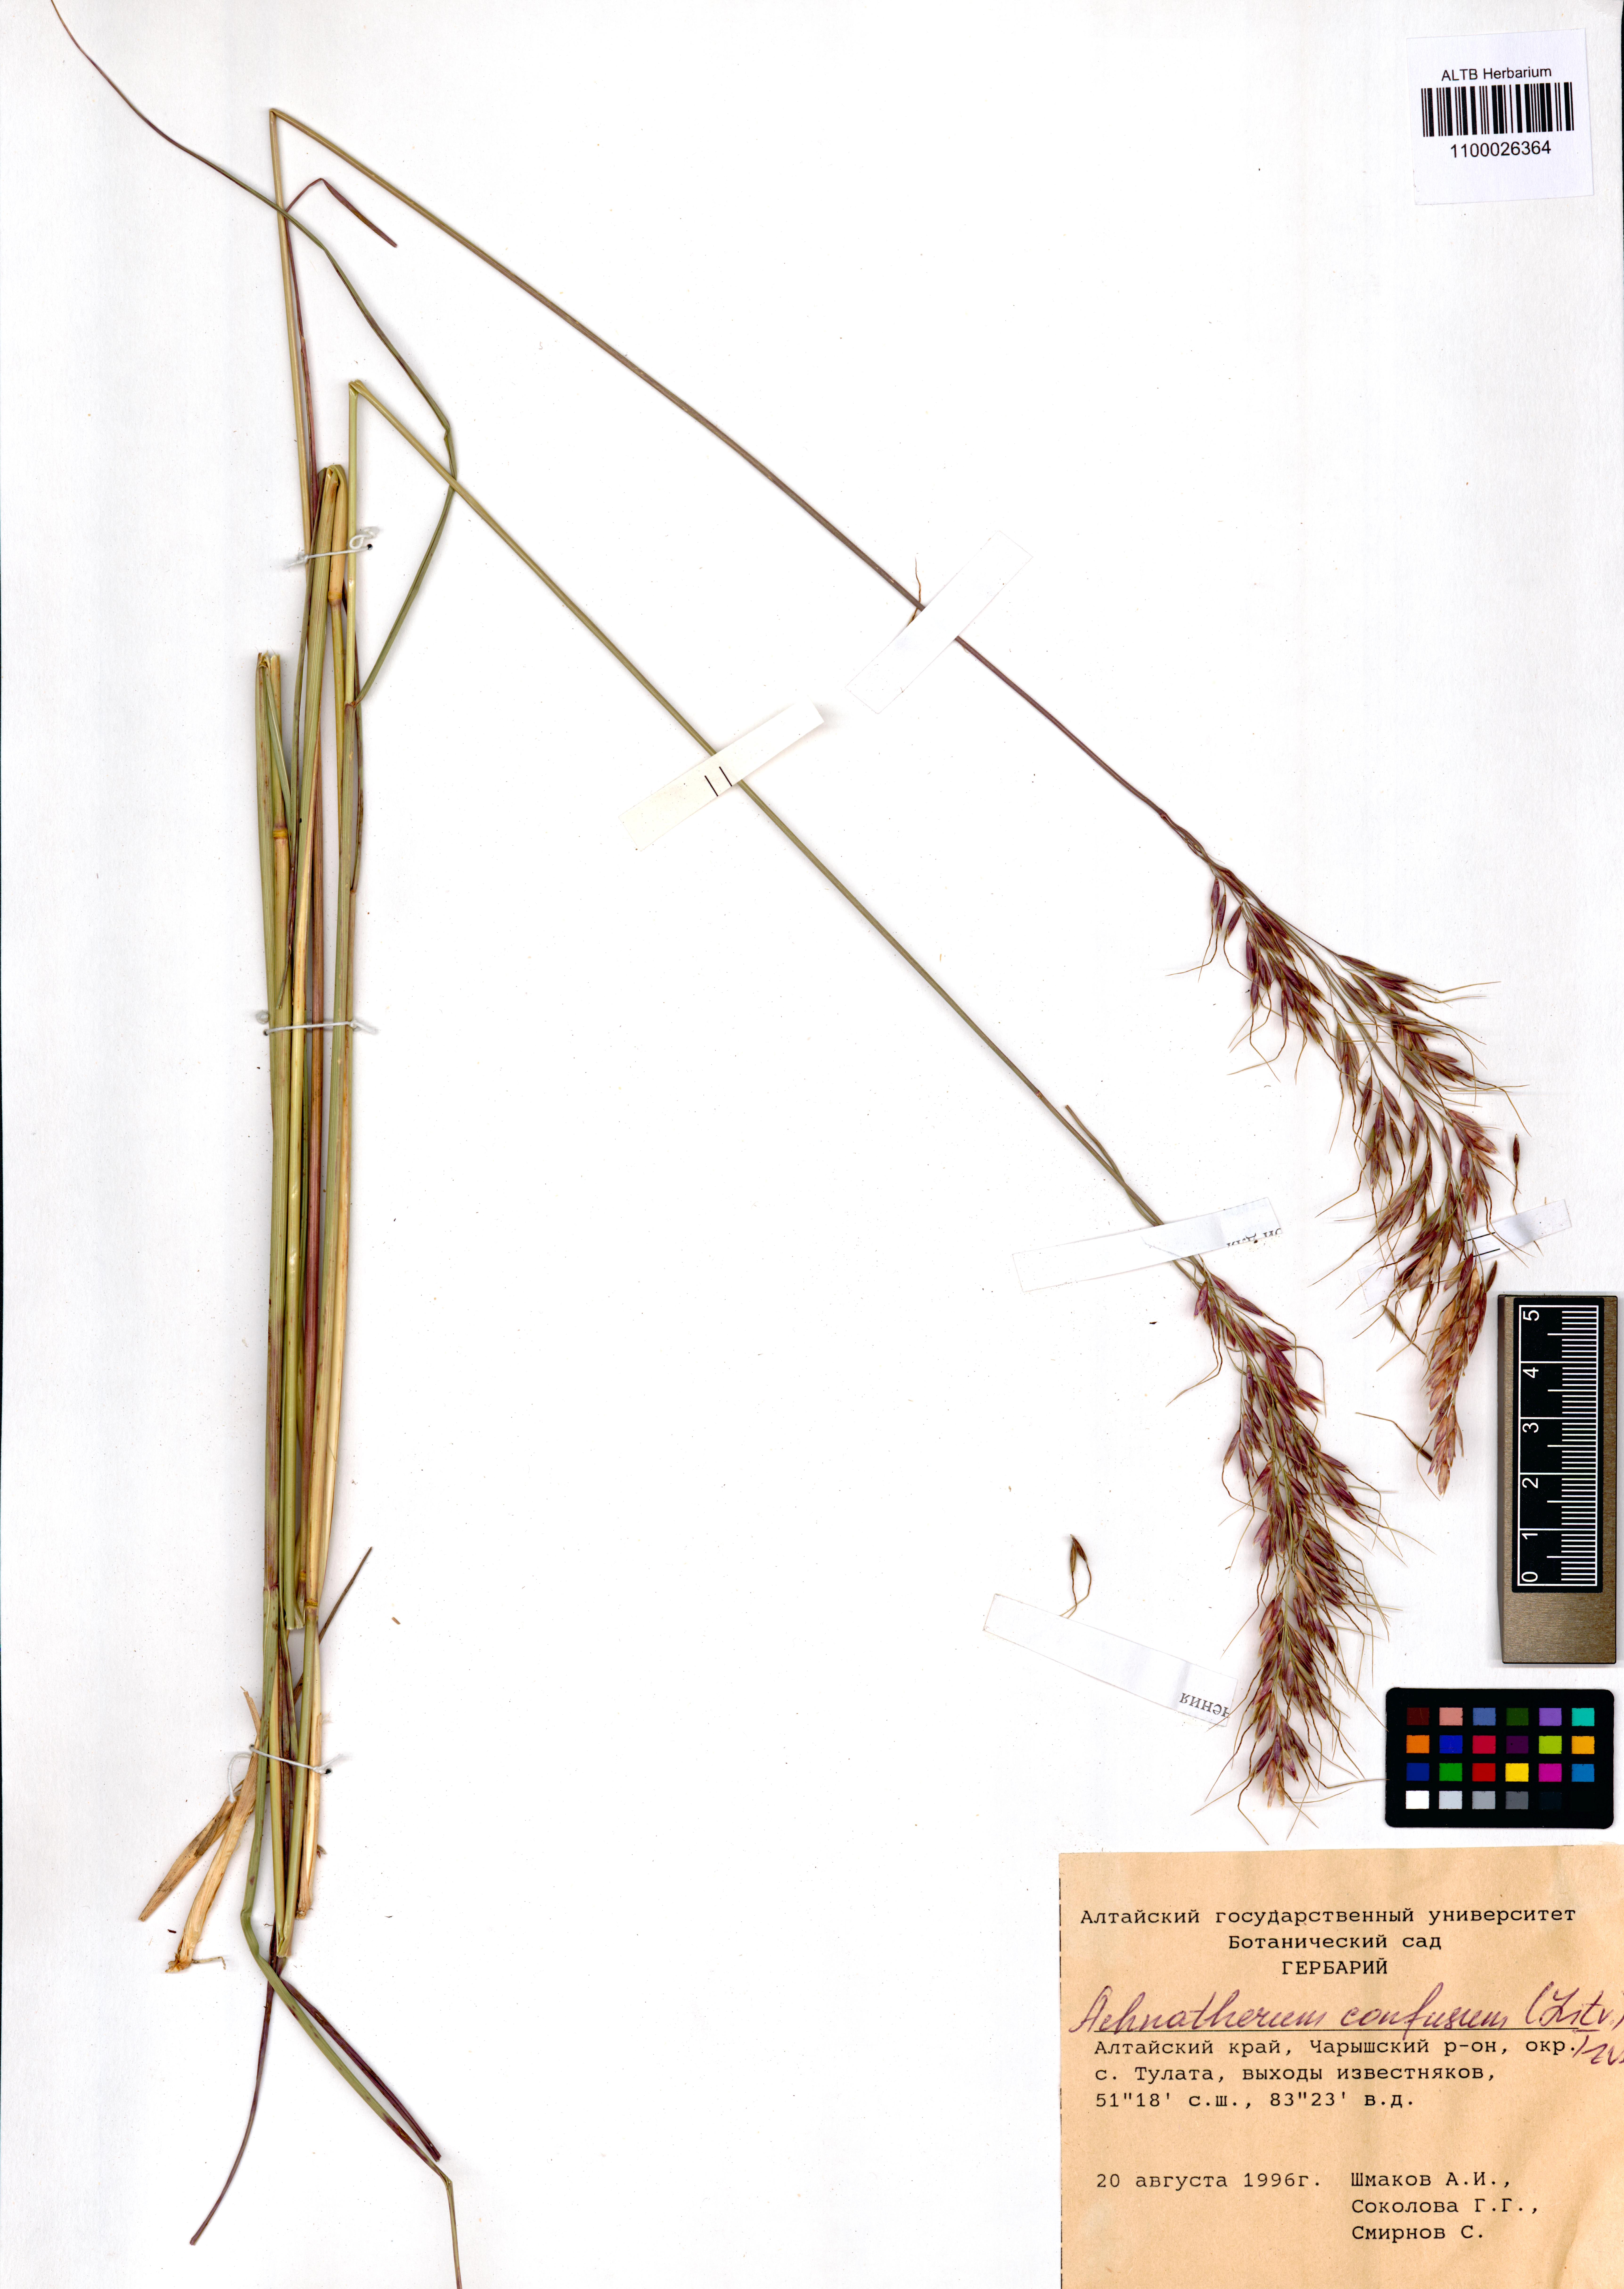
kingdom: Plantae
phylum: Tracheophyta
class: Liliopsida
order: Poales
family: Poaceae
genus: Achnatherum
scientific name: Achnatherum confusum
